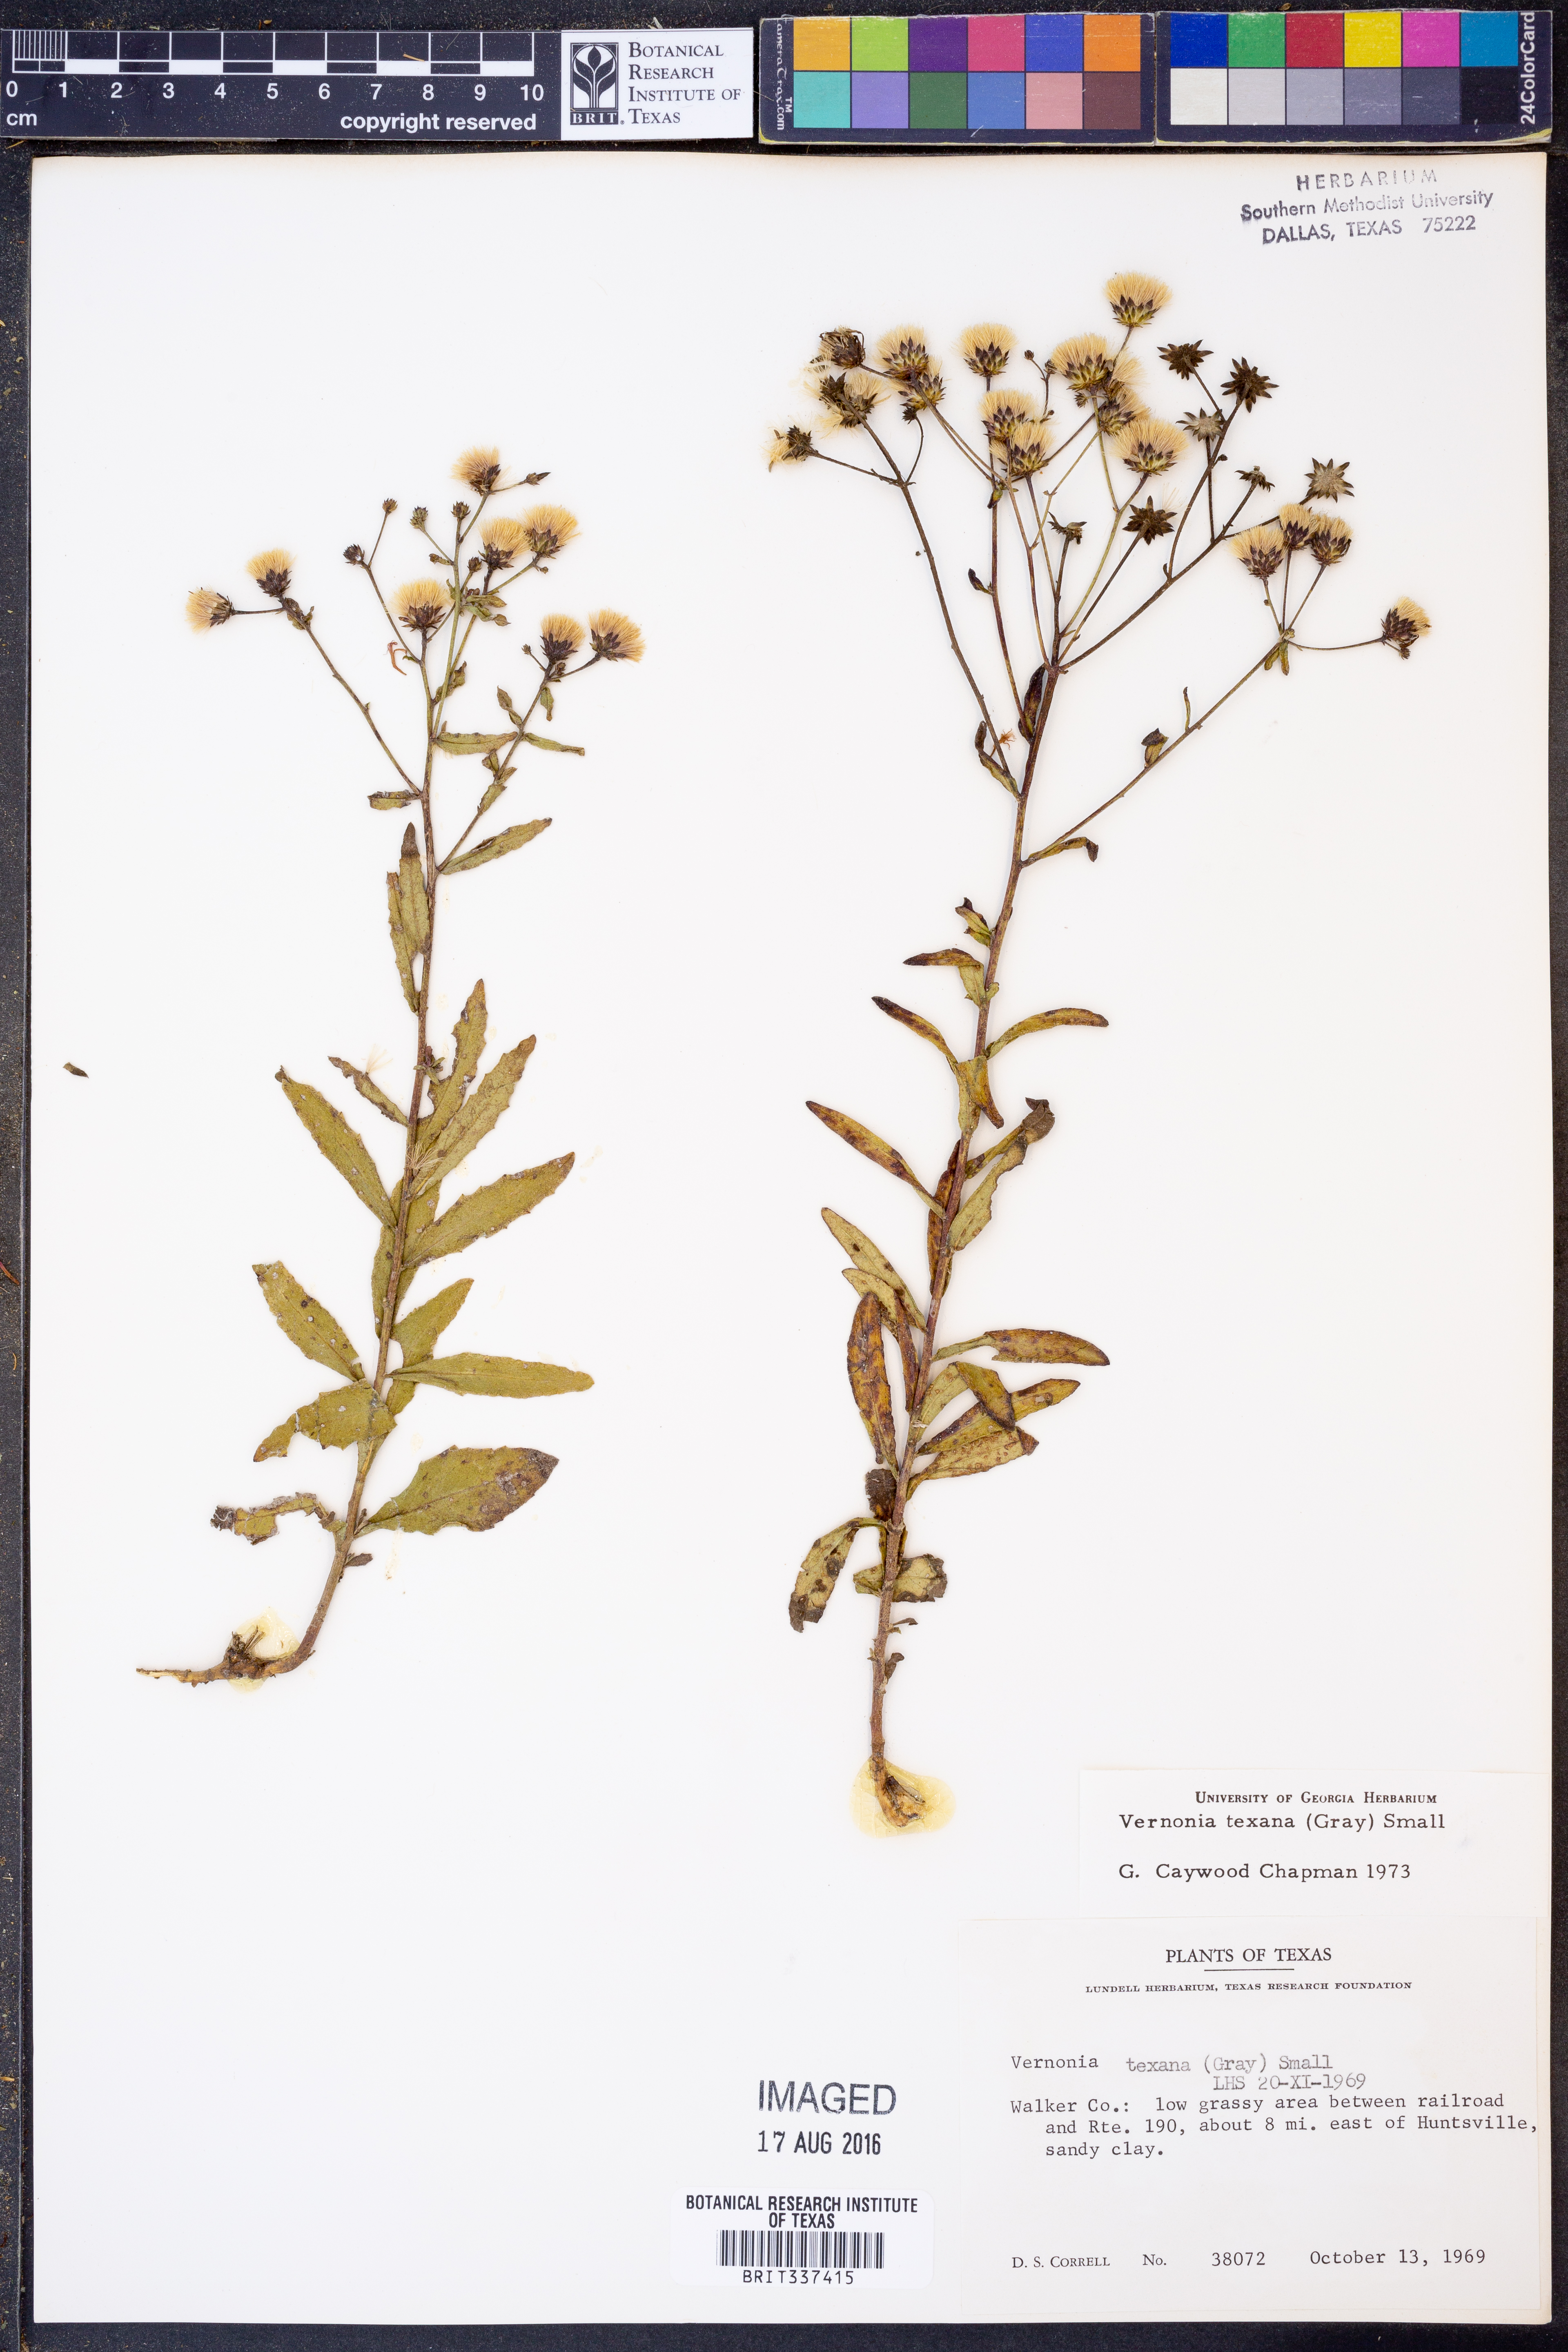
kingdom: Plantae
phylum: Tracheophyta
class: Magnoliopsida
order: Asterales
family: Asteraceae
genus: Vernonia
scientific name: Vernonia texana
